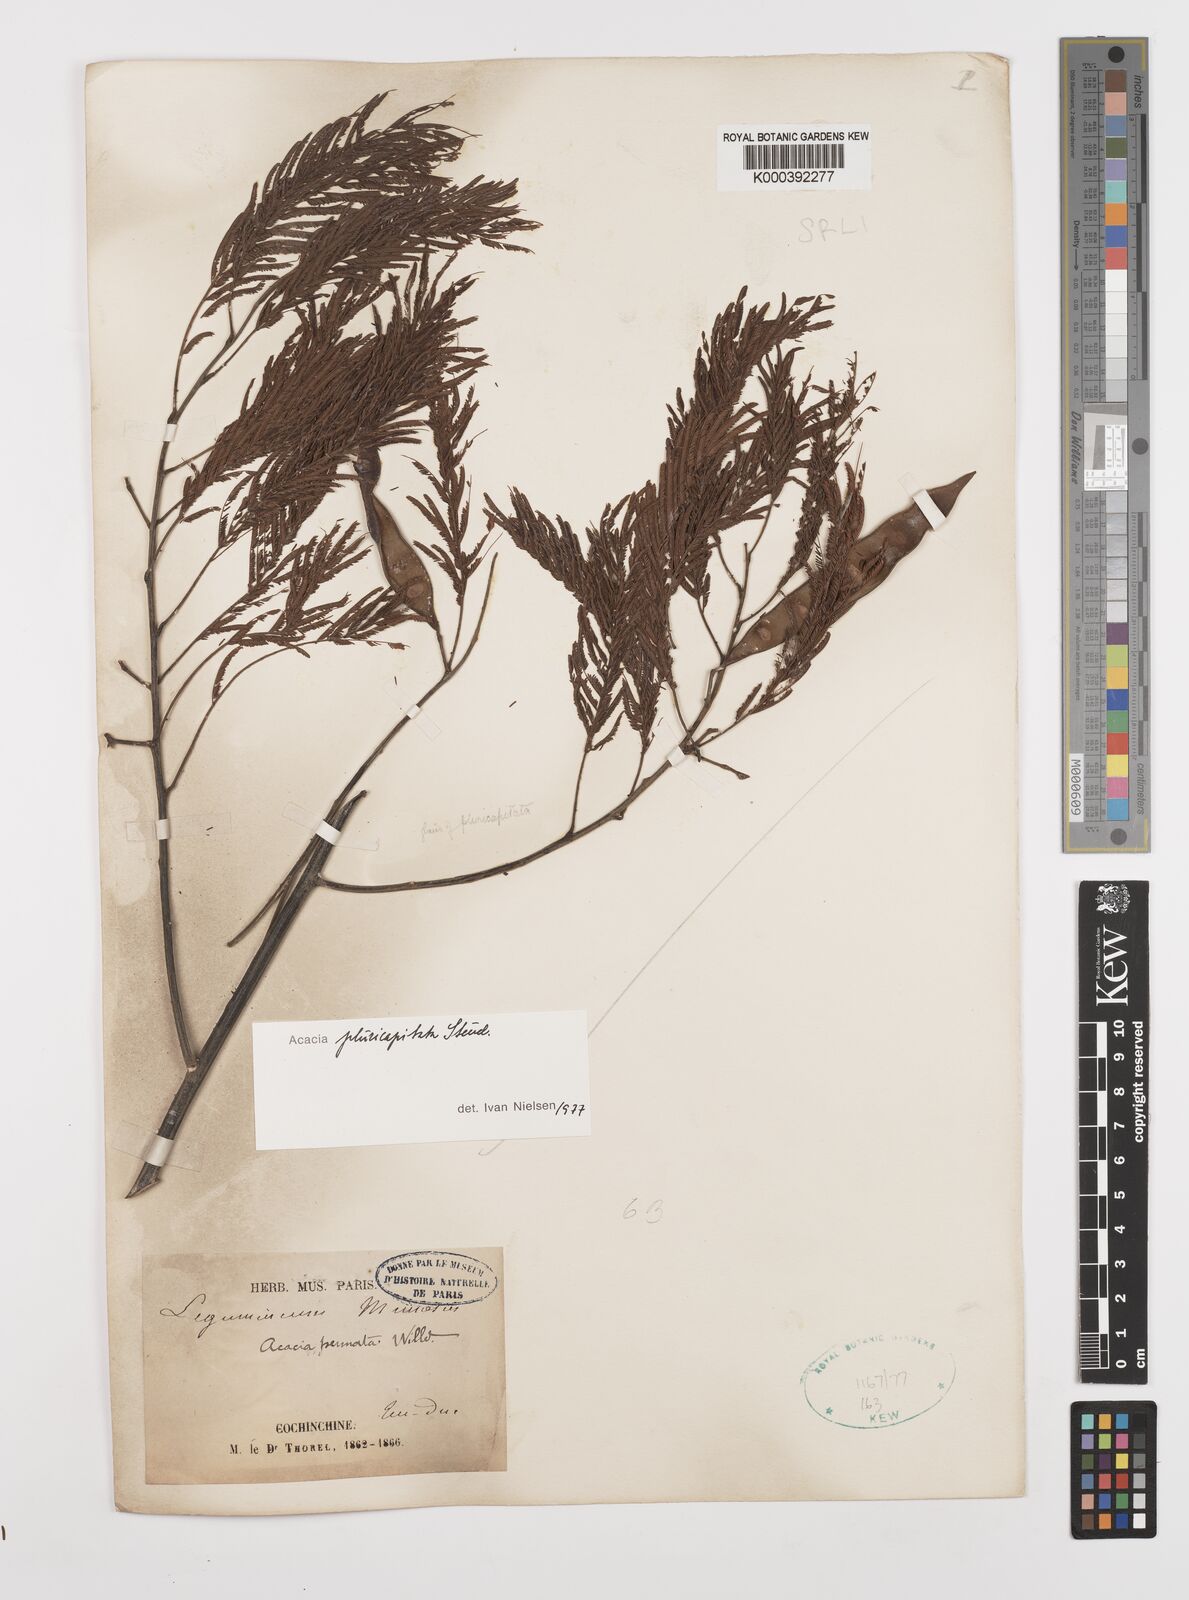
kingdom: Plantae
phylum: Tracheophyta
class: Magnoliopsida
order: Fabales
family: Fabaceae
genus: Acacia
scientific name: Acacia
